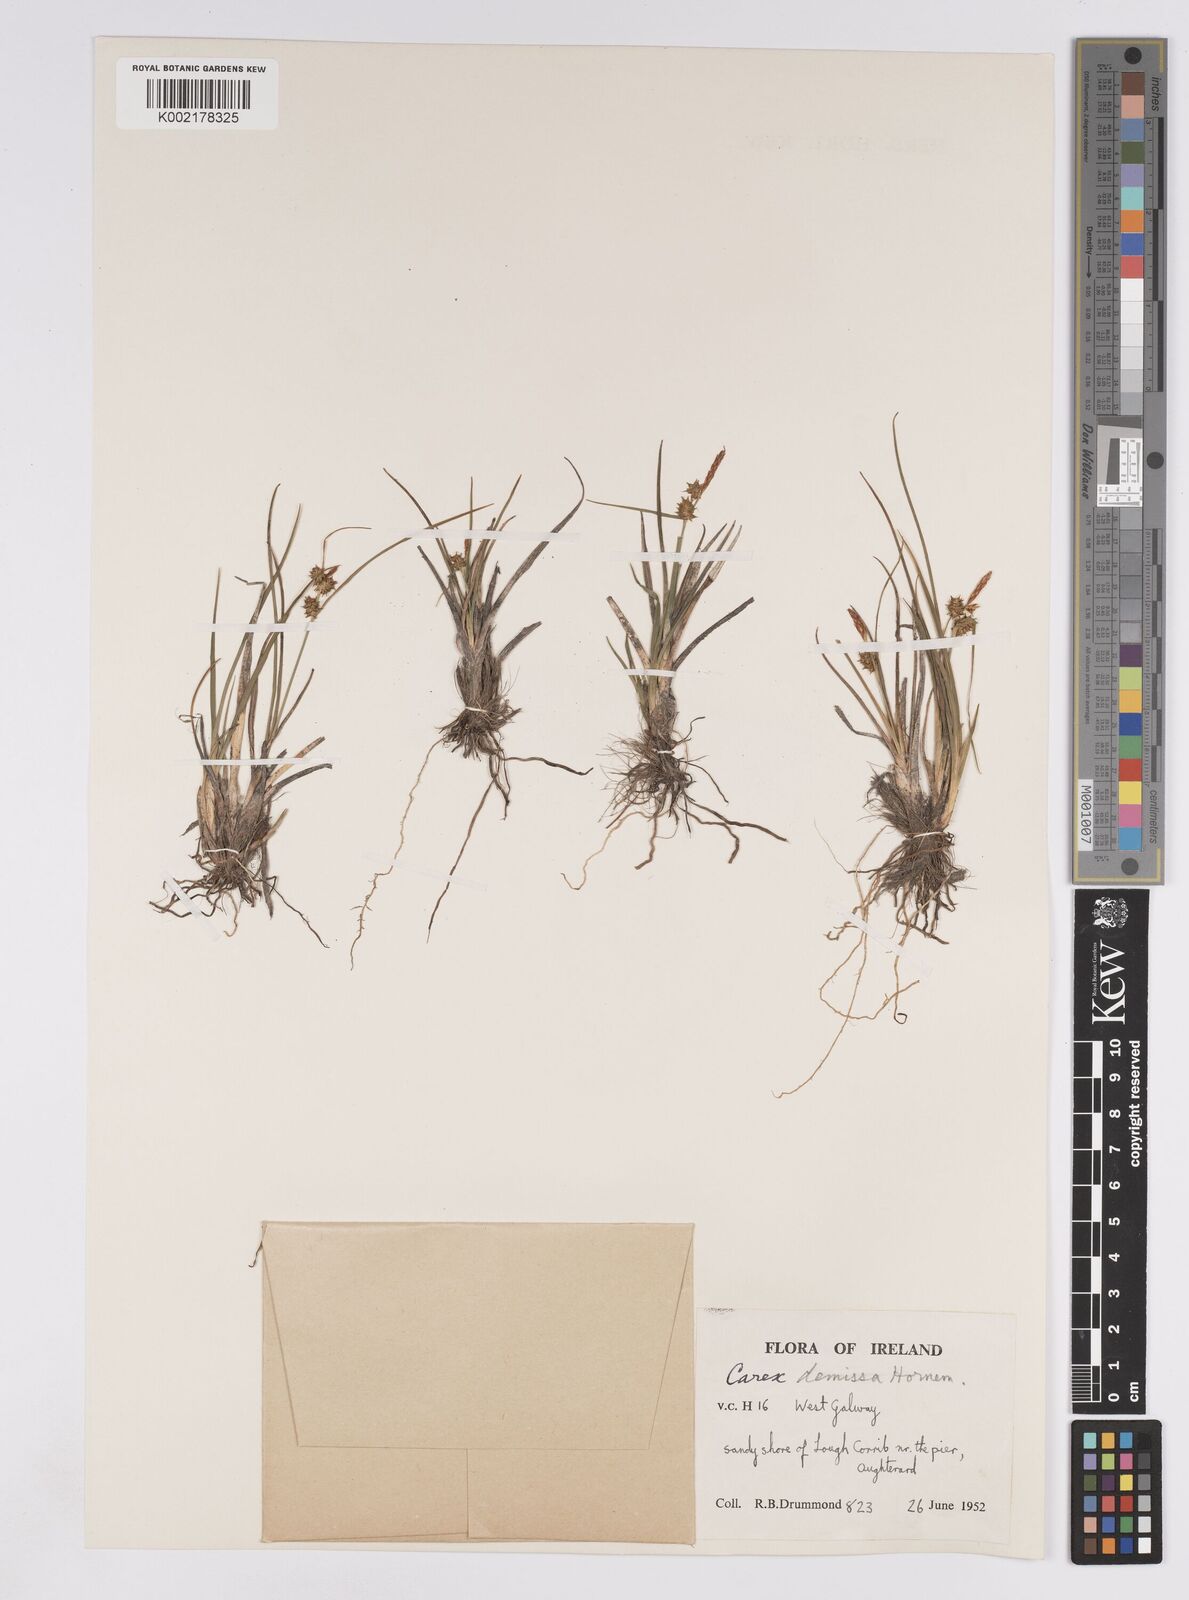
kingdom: Plantae
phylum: Tracheophyta
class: Liliopsida
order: Poales
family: Cyperaceae
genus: Carex
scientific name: Carex demissa
